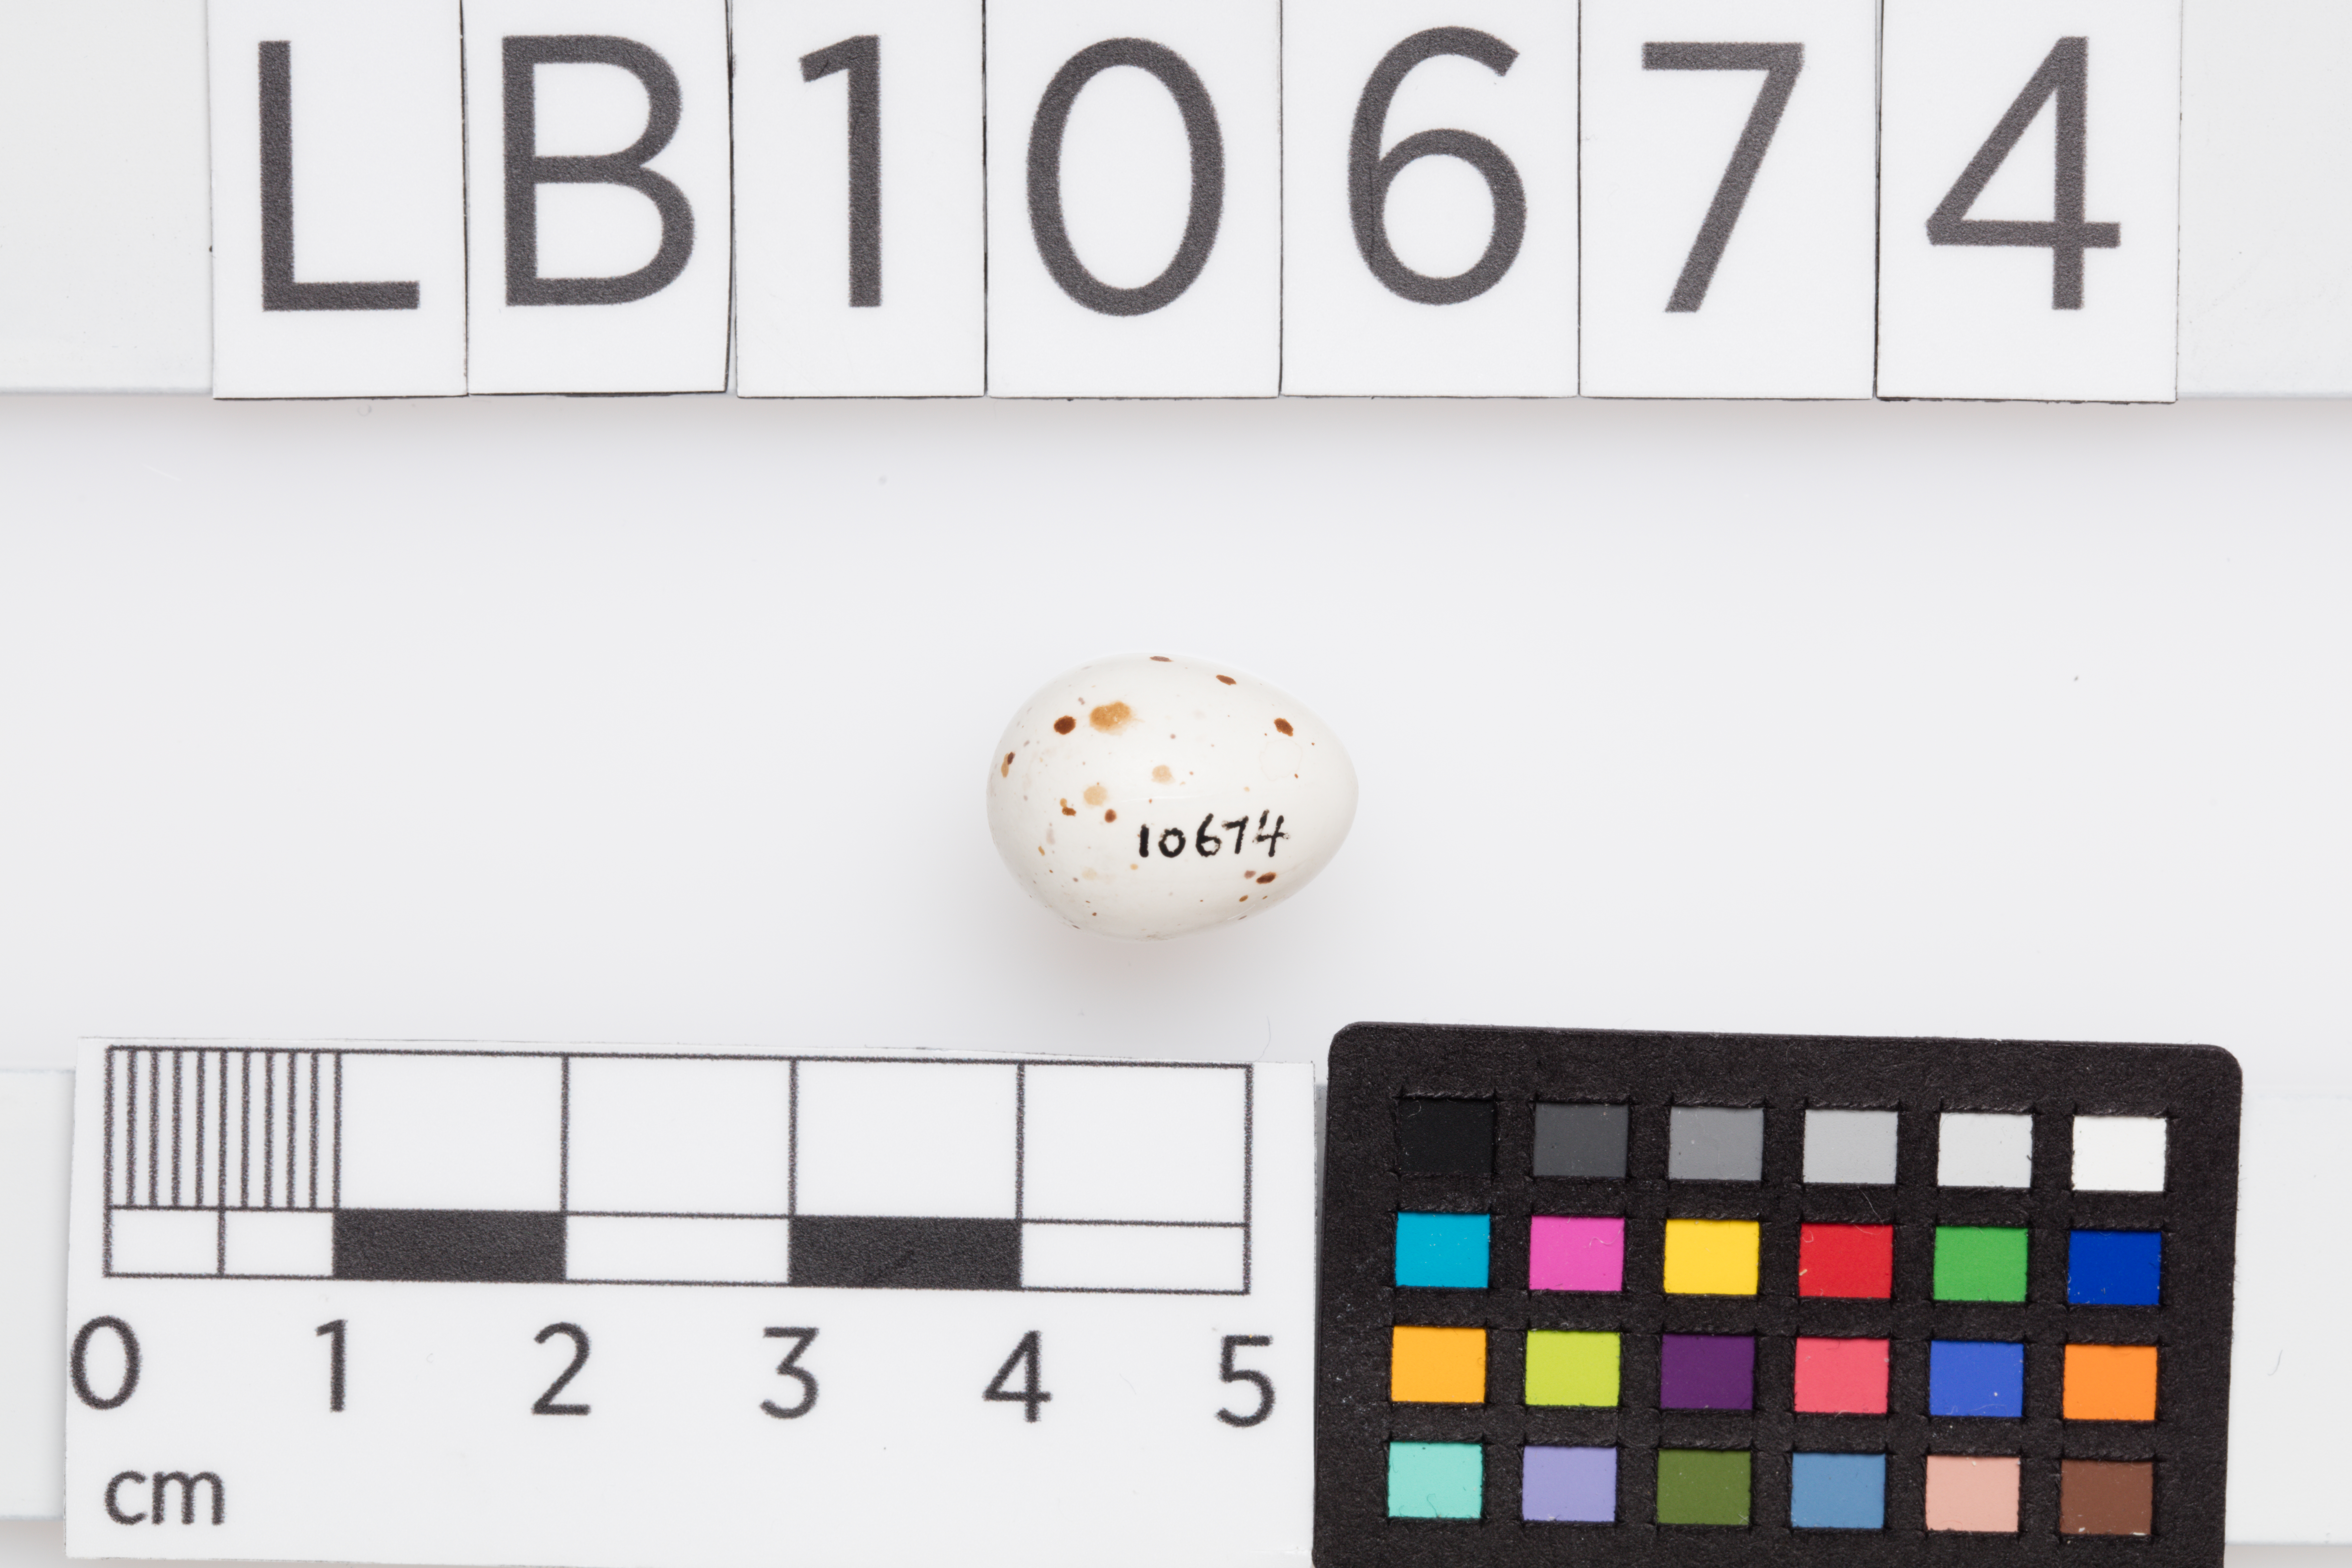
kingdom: Animalia
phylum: Chordata
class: Aves
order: Passeriformes
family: Phylloscopidae
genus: Phylloscopus
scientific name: Phylloscopus trochilus
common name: Willow warbler
